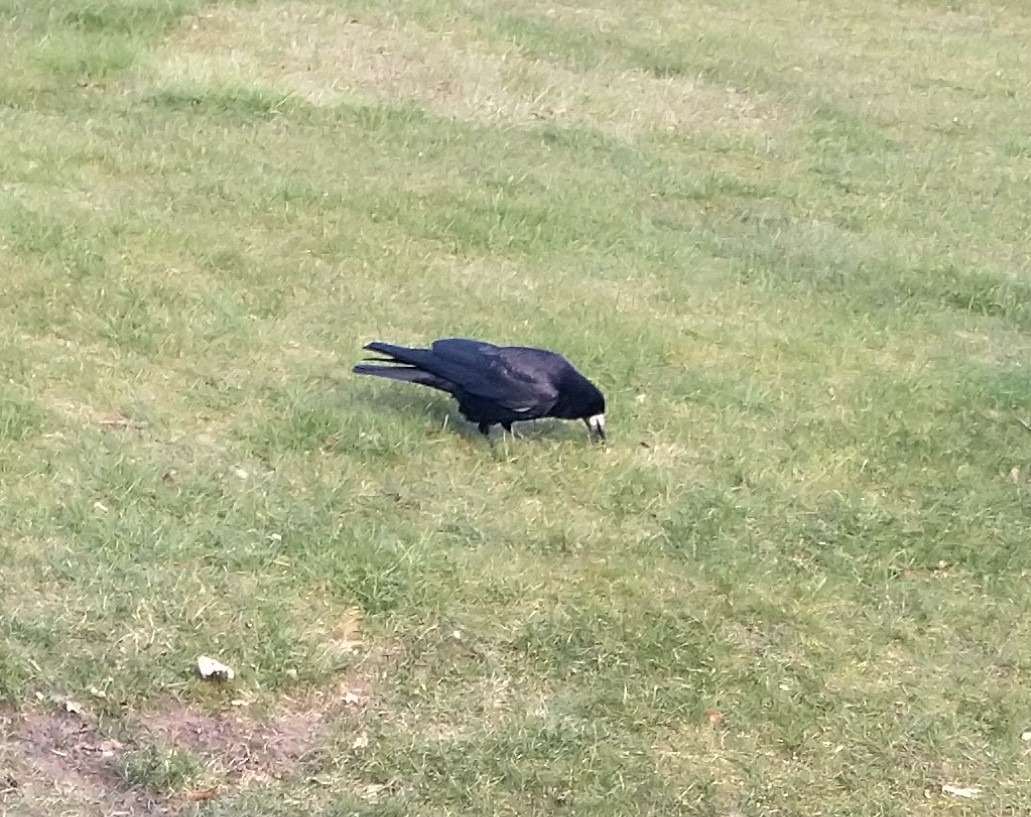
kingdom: Animalia
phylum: Chordata
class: Aves
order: Passeriformes
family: Corvidae
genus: Corvus
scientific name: Corvus frugilegus
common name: Råge
